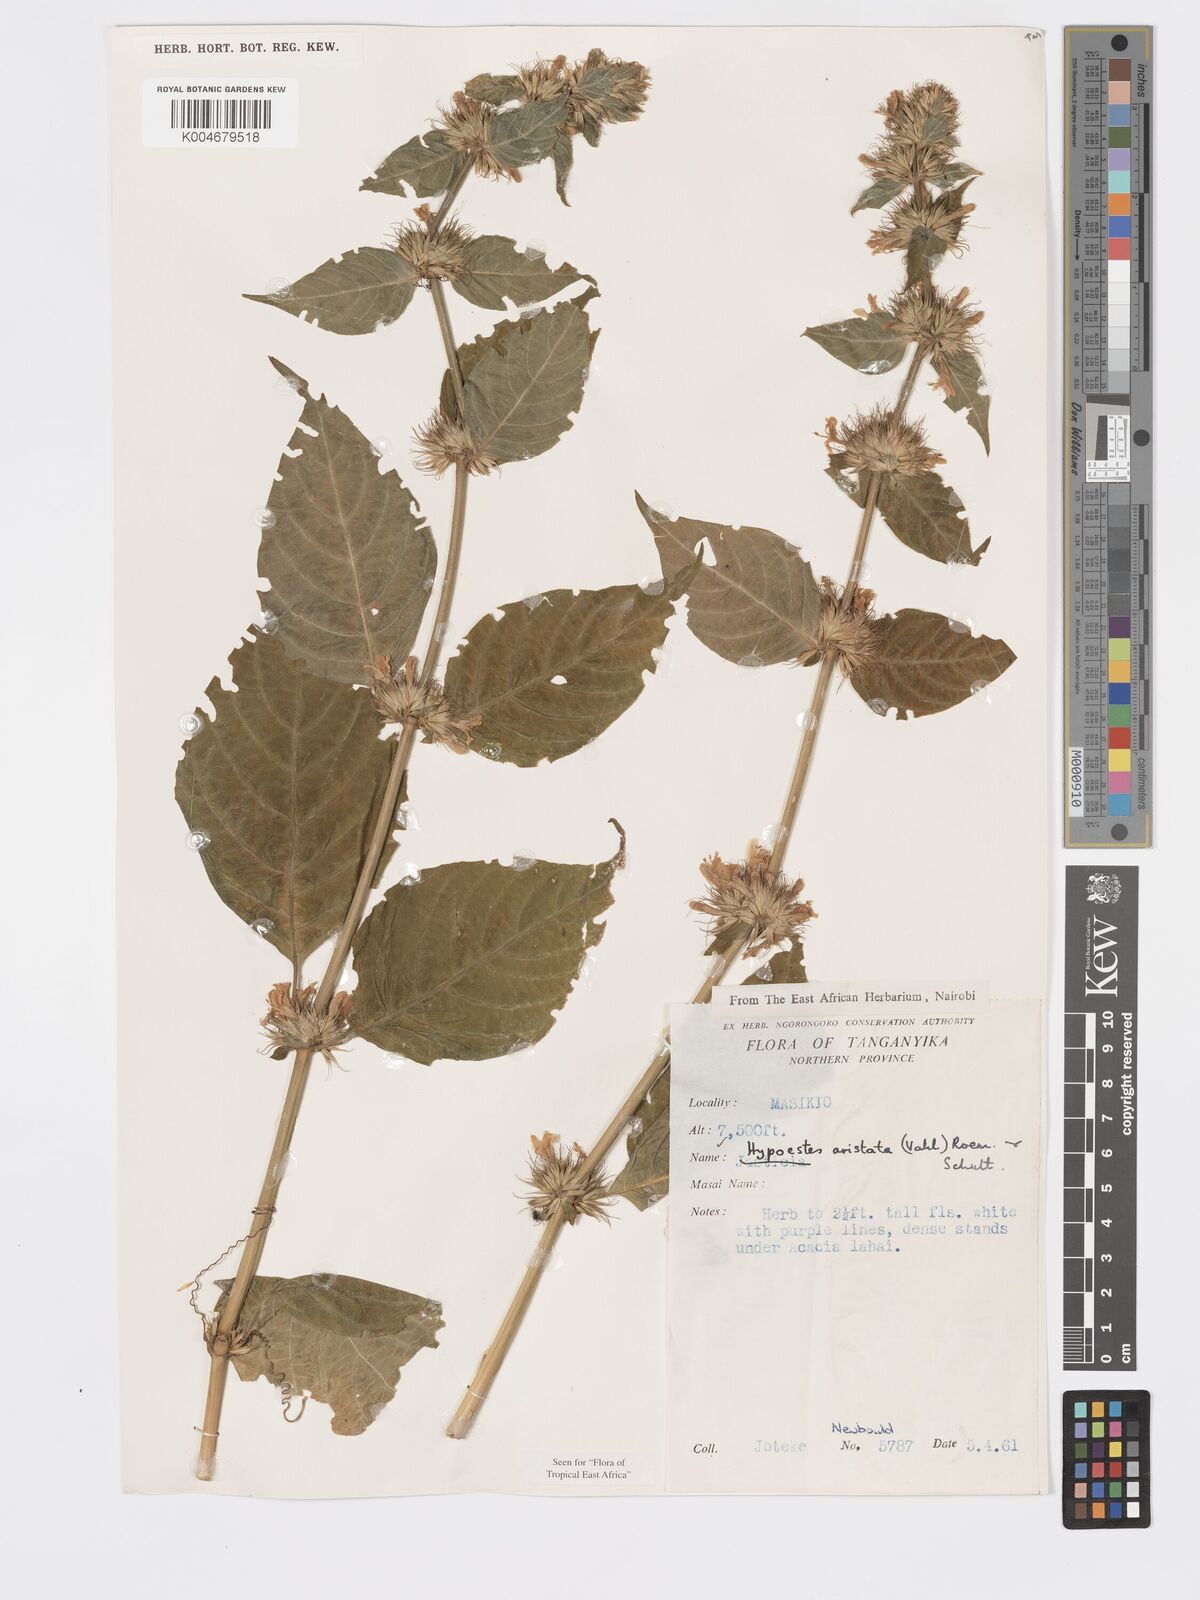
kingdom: Plantae
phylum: Tracheophyta
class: Magnoliopsida
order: Lamiales
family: Acanthaceae
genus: Hypoestes
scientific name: Hypoestes aristata
